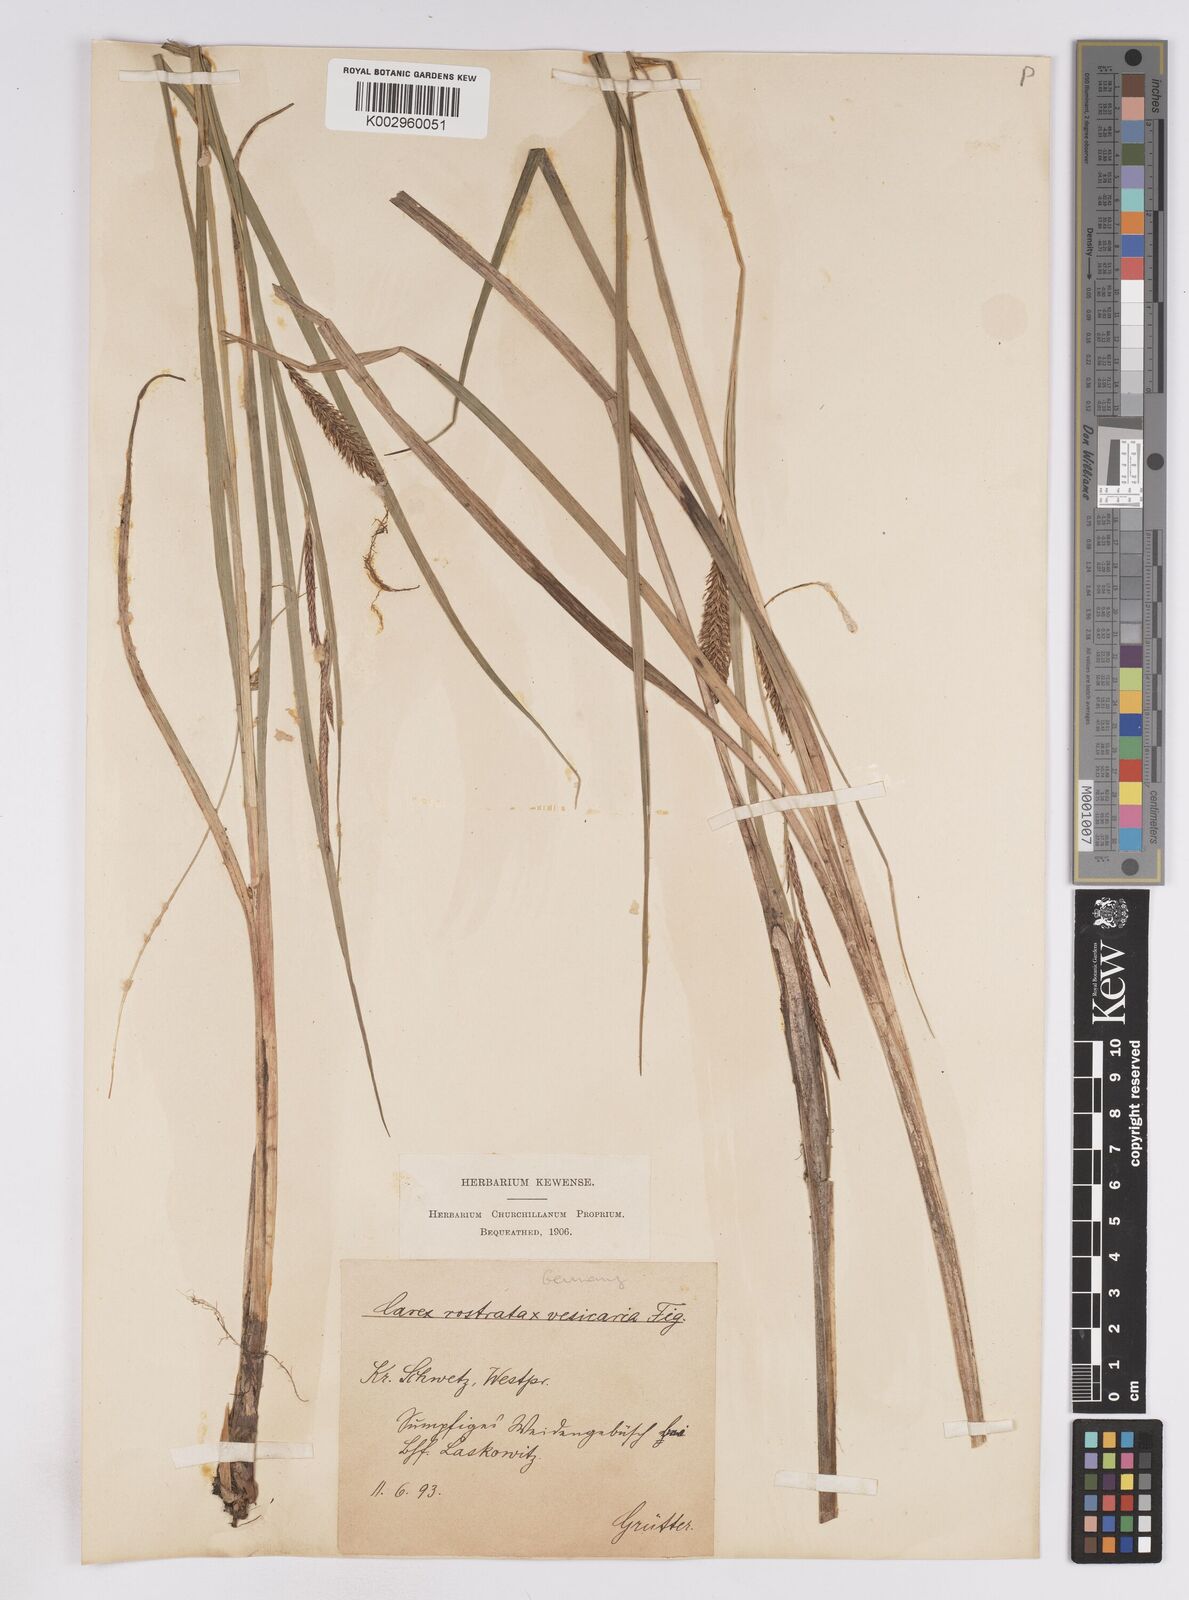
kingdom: Plantae
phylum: Tracheophyta
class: Liliopsida
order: Poales
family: Cyperaceae
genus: Carex
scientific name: Carex
